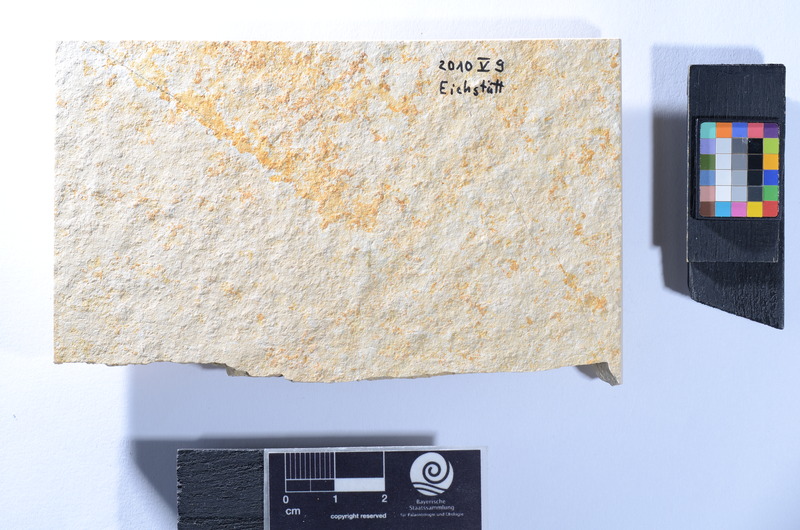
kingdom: Animalia
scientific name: Animalia
